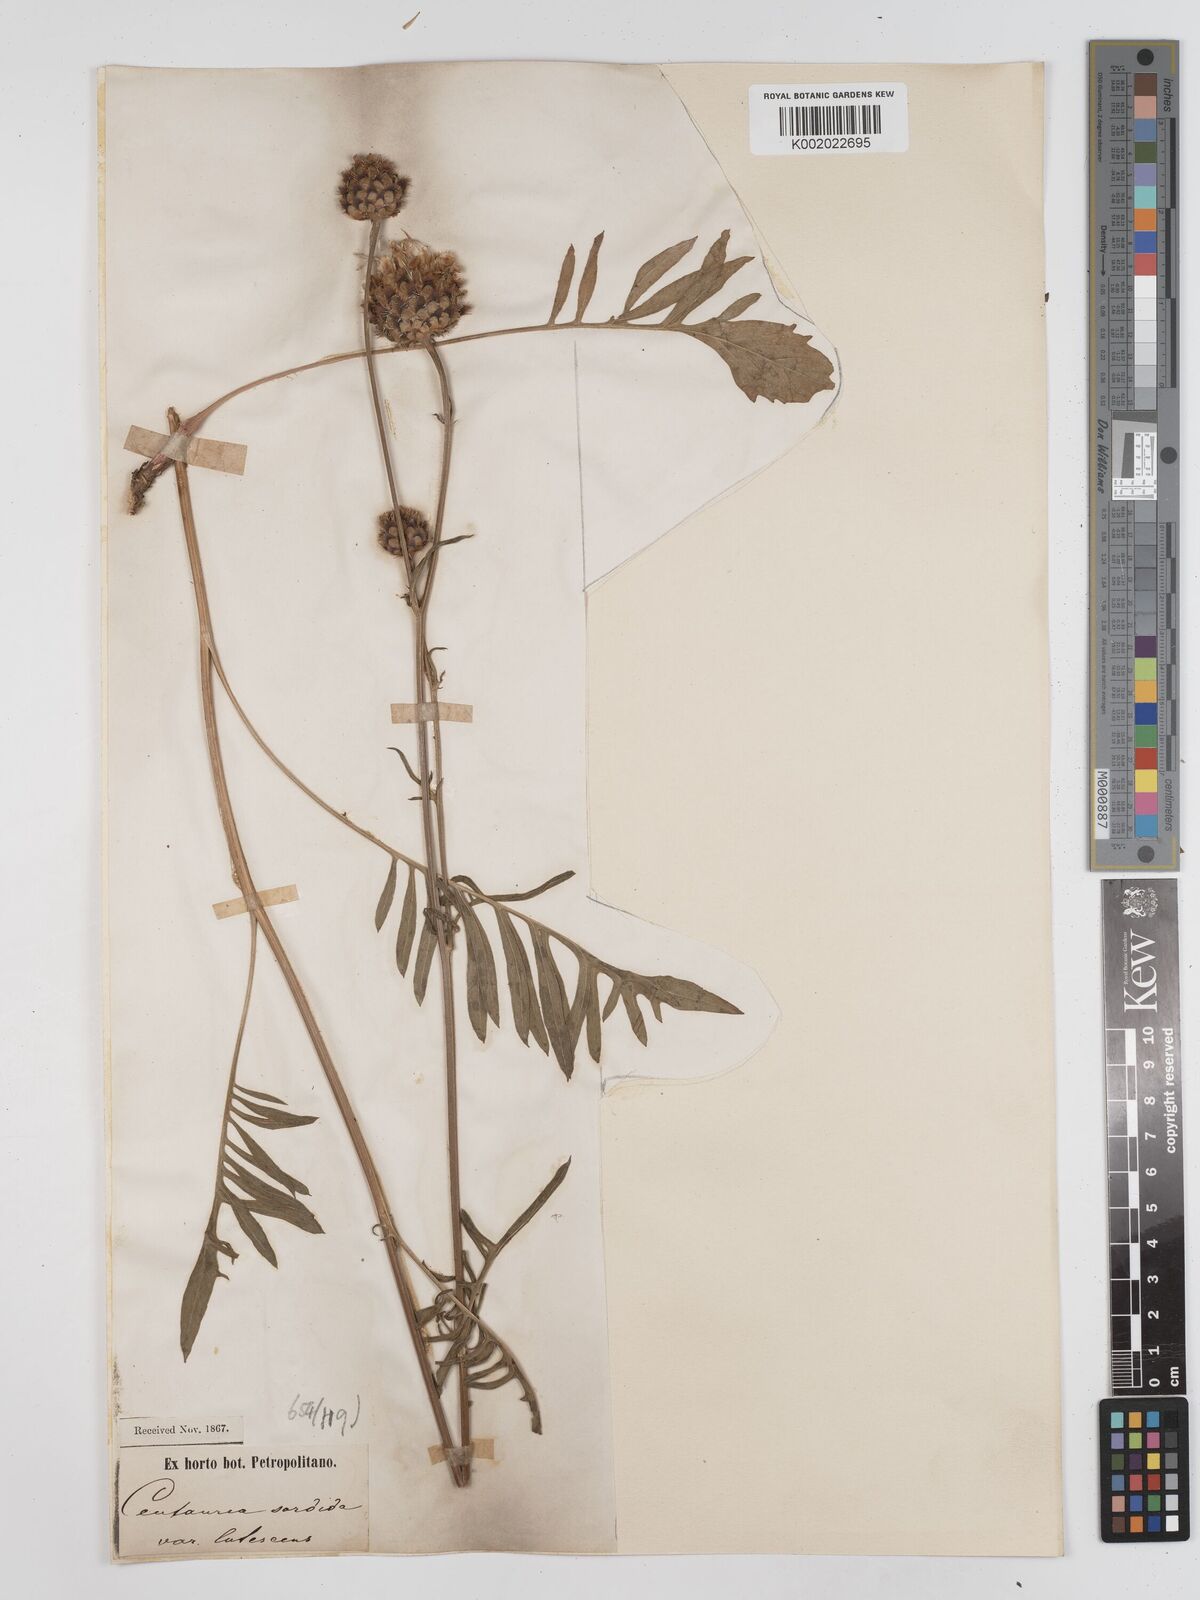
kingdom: Plantae
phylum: Tracheophyta
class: Magnoliopsida
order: Asterales
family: Asteraceae
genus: Centaurea
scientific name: Centaurea calocephala
